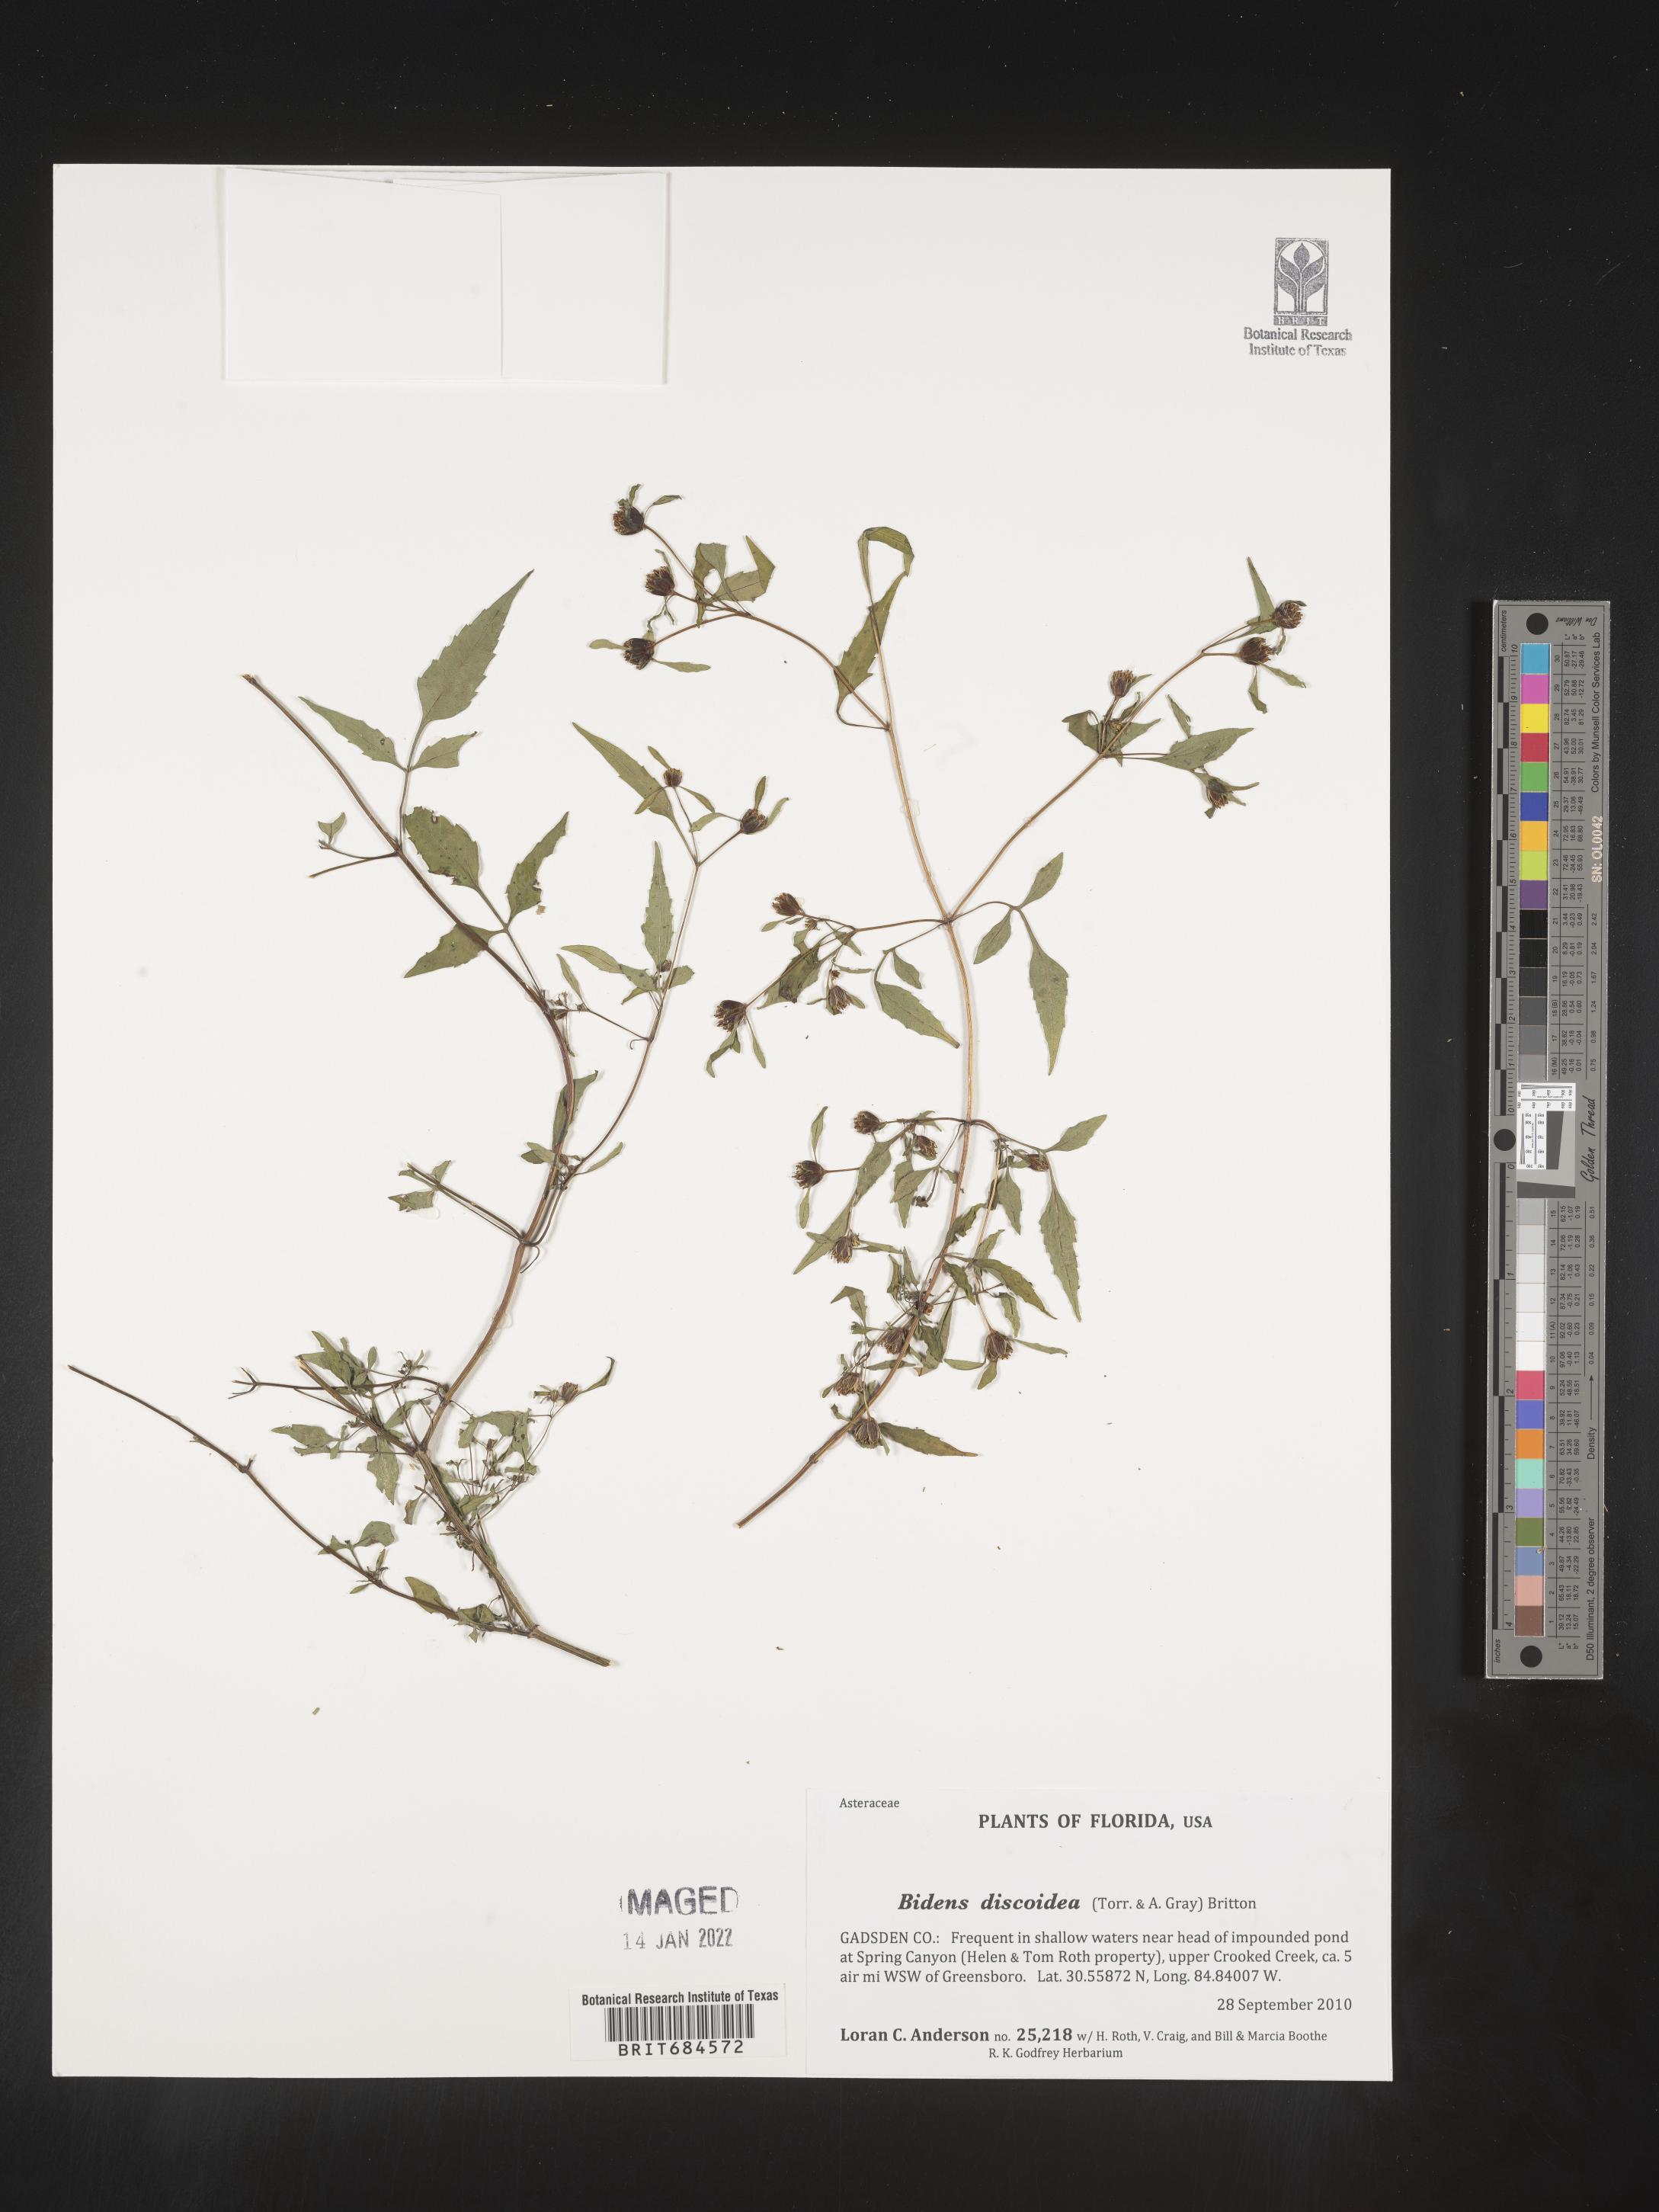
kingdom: Plantae
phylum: Tracheophyta
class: Magnoliopsida
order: Asterales
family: Asteraceae
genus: Bidens
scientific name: Bidens discoidea
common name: Discoide beggarticks
